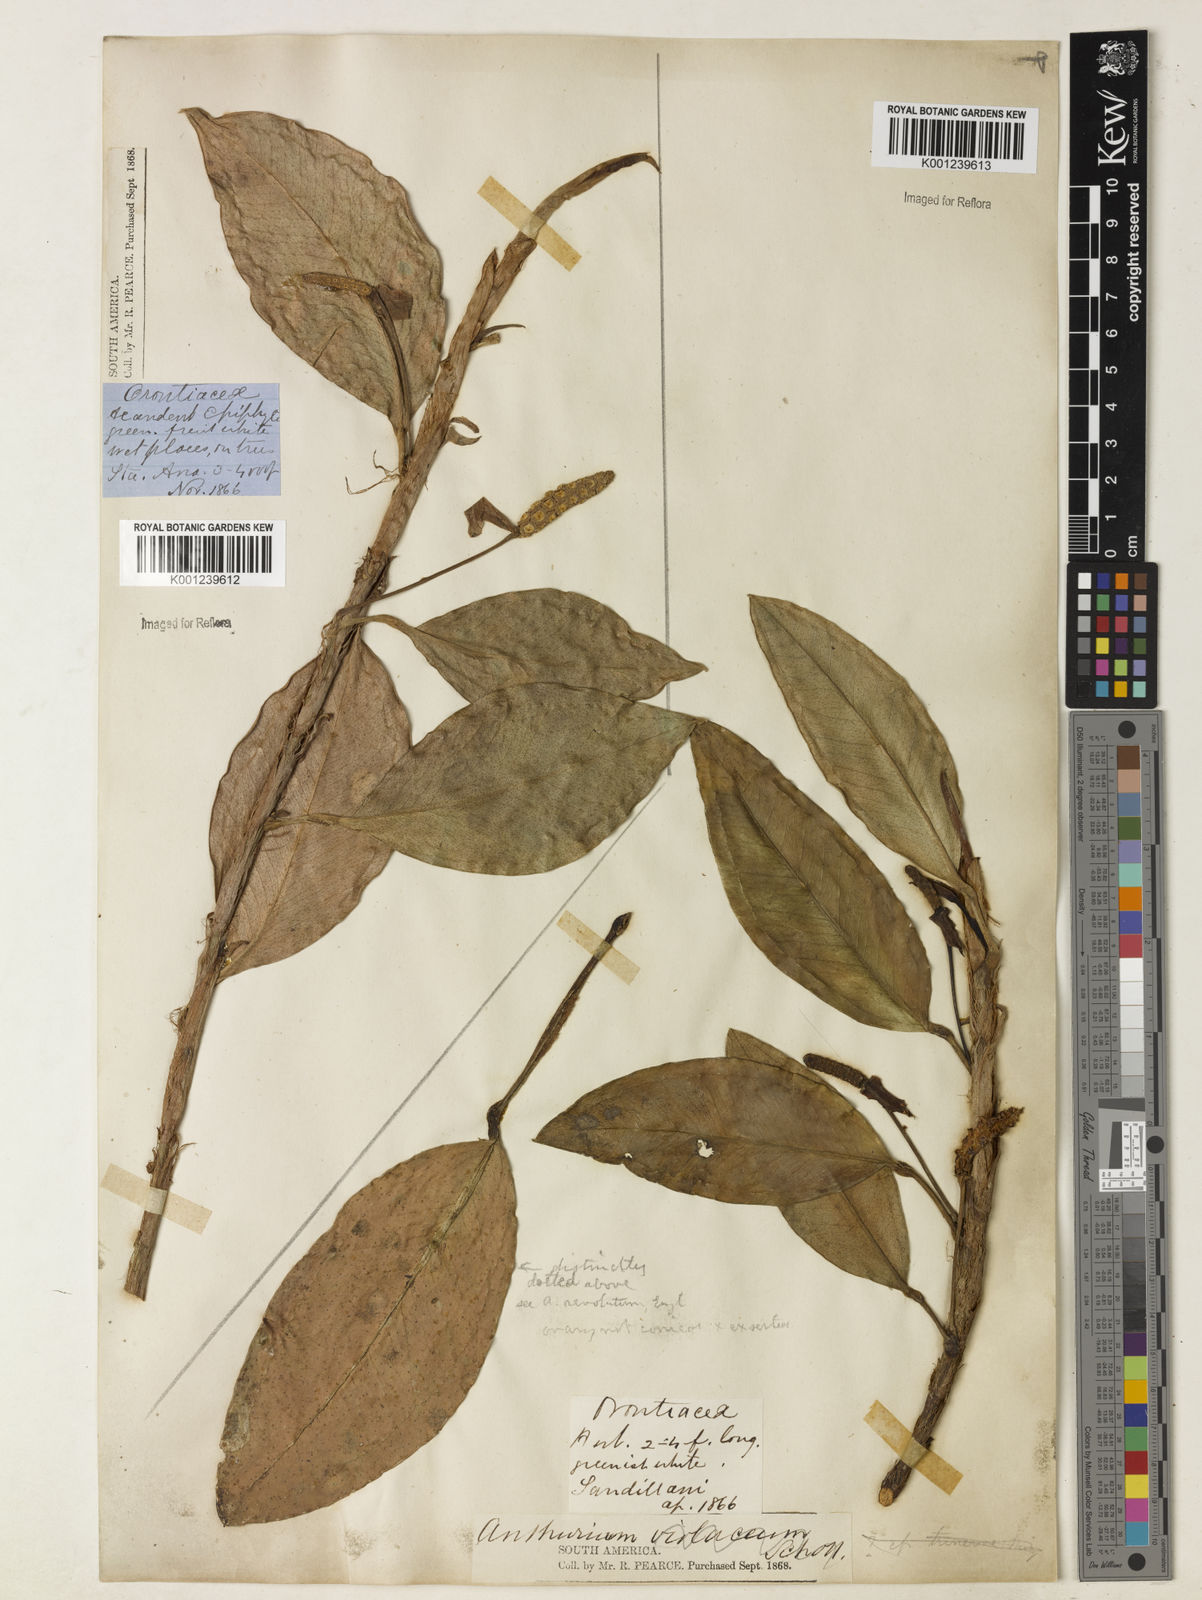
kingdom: Plantae
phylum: Tracheophyta
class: Liliopsida
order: Alismatales
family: Araceae
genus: Anthurium
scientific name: Anthurium scandens
